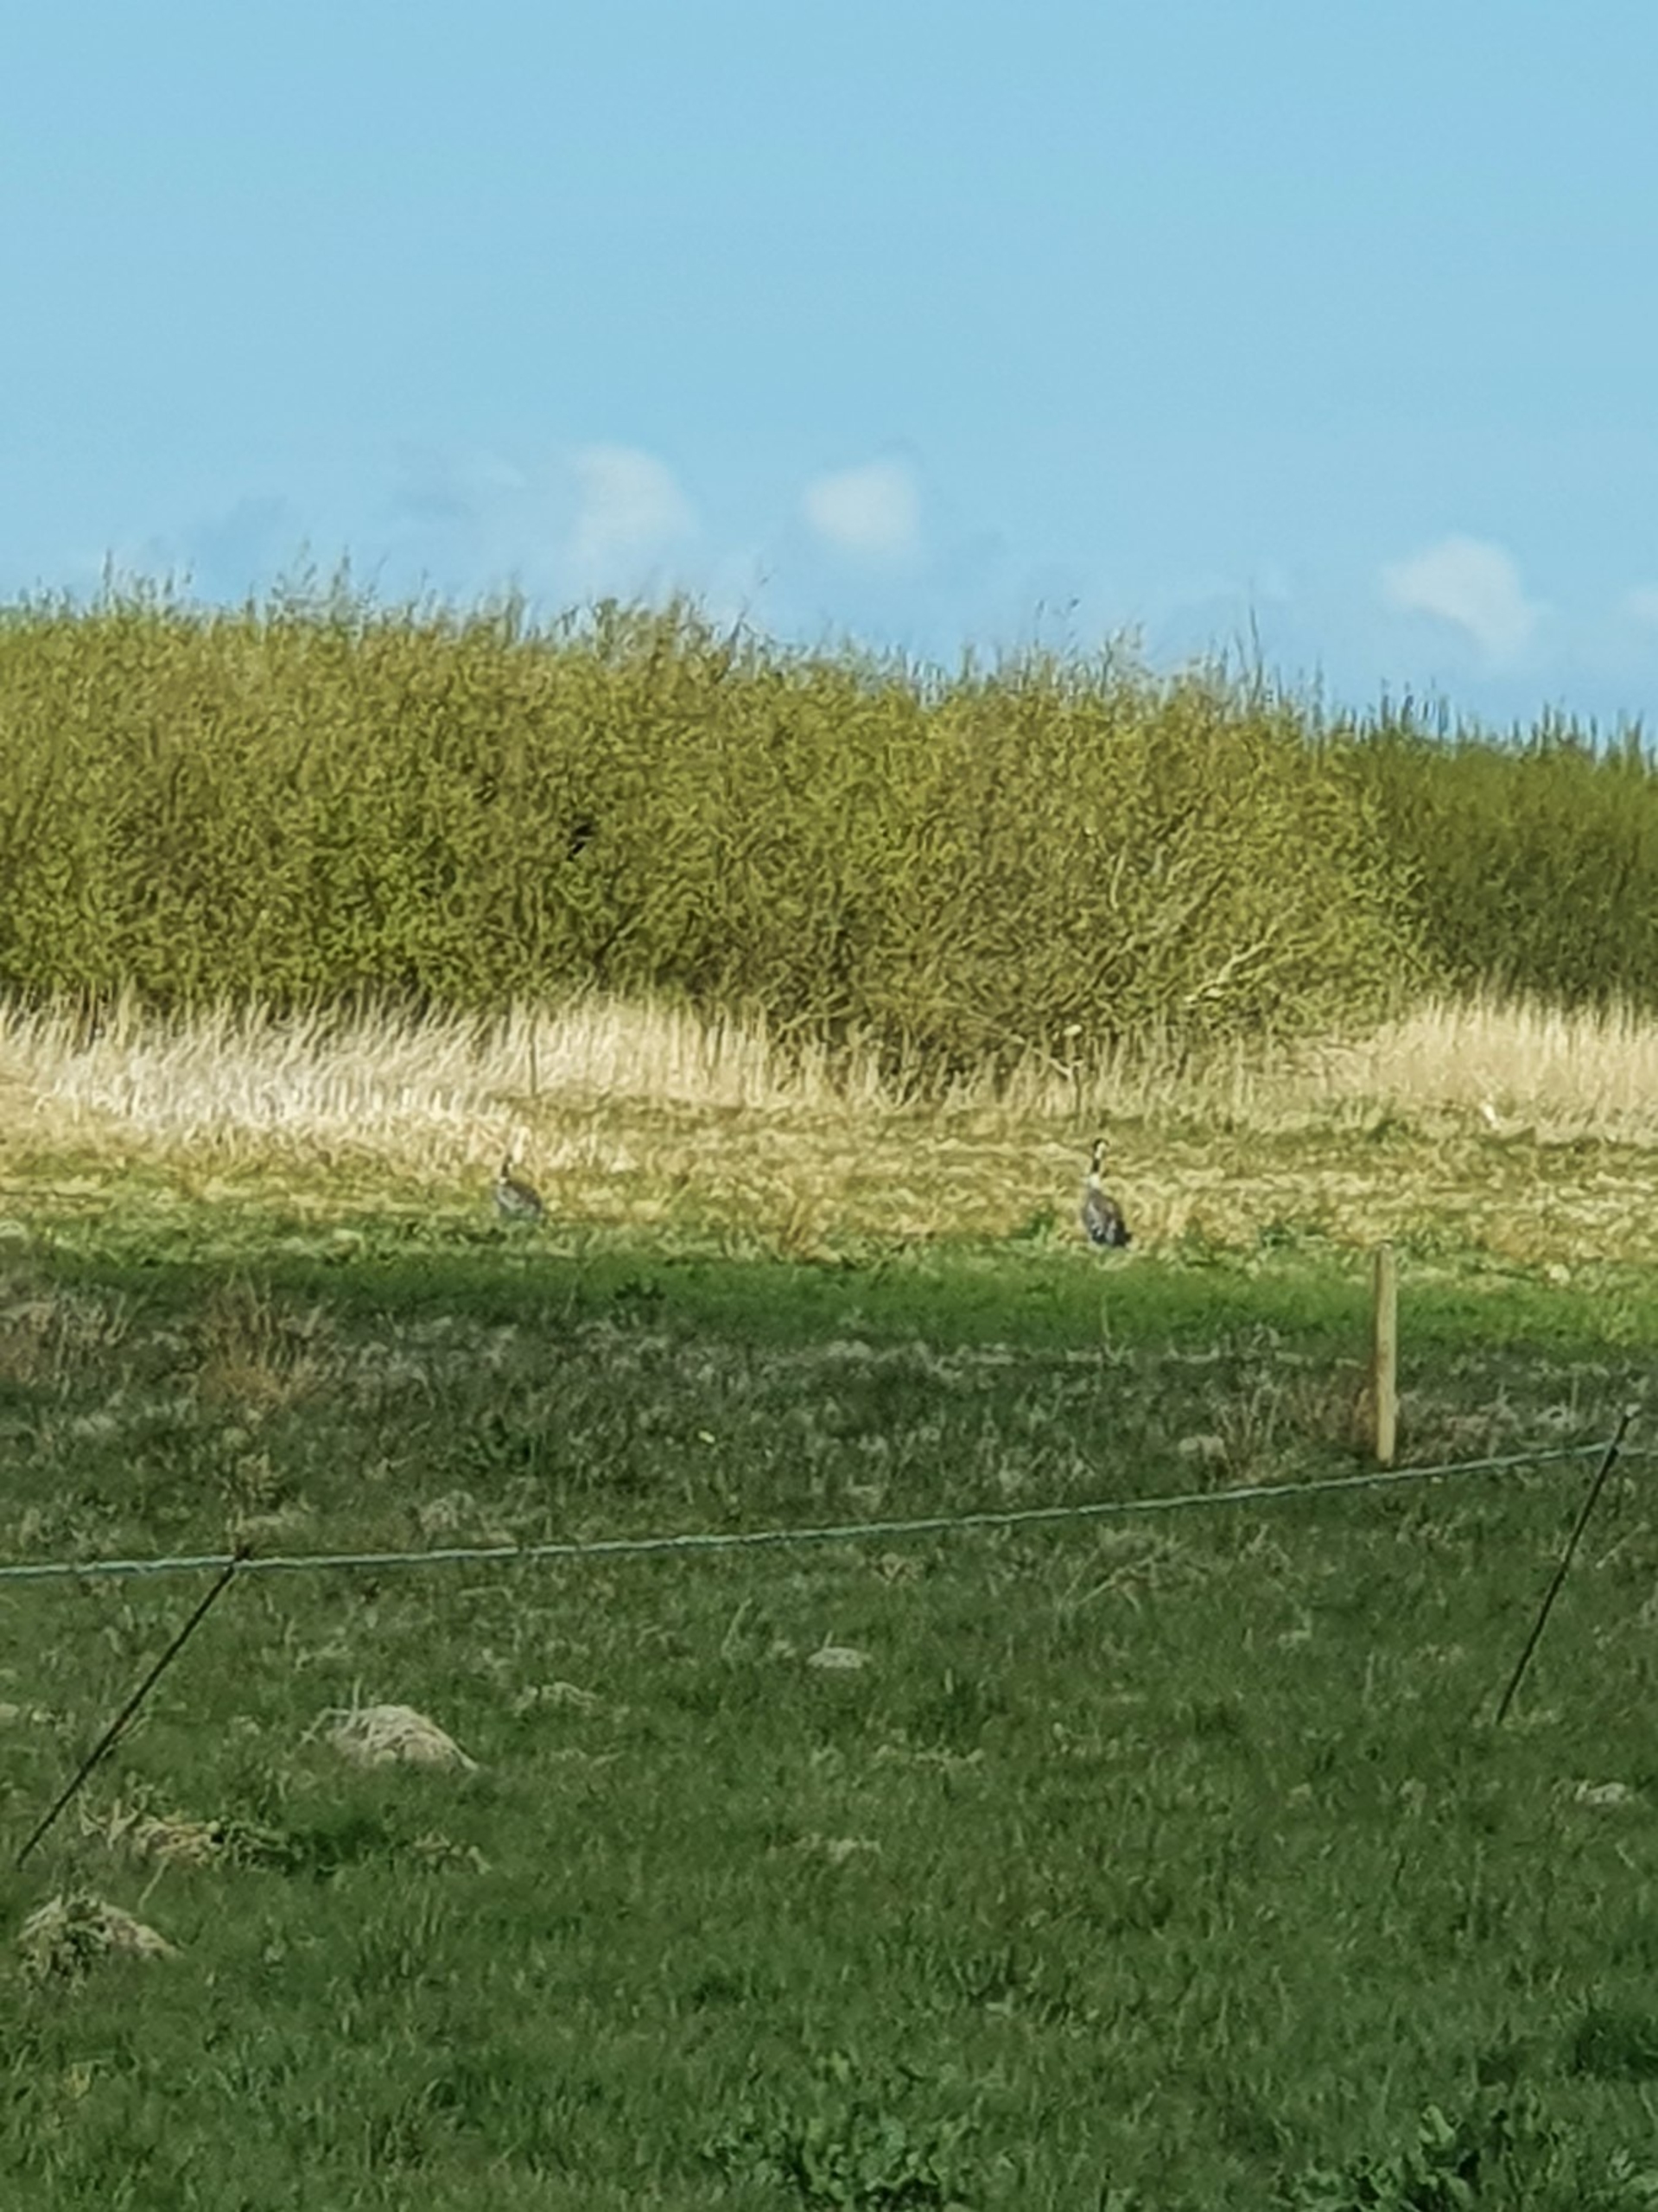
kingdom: Animalia
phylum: Chordata
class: Aves
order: Gruiformes
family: Gruidae
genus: Grus
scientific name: Grus grus
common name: Trane
